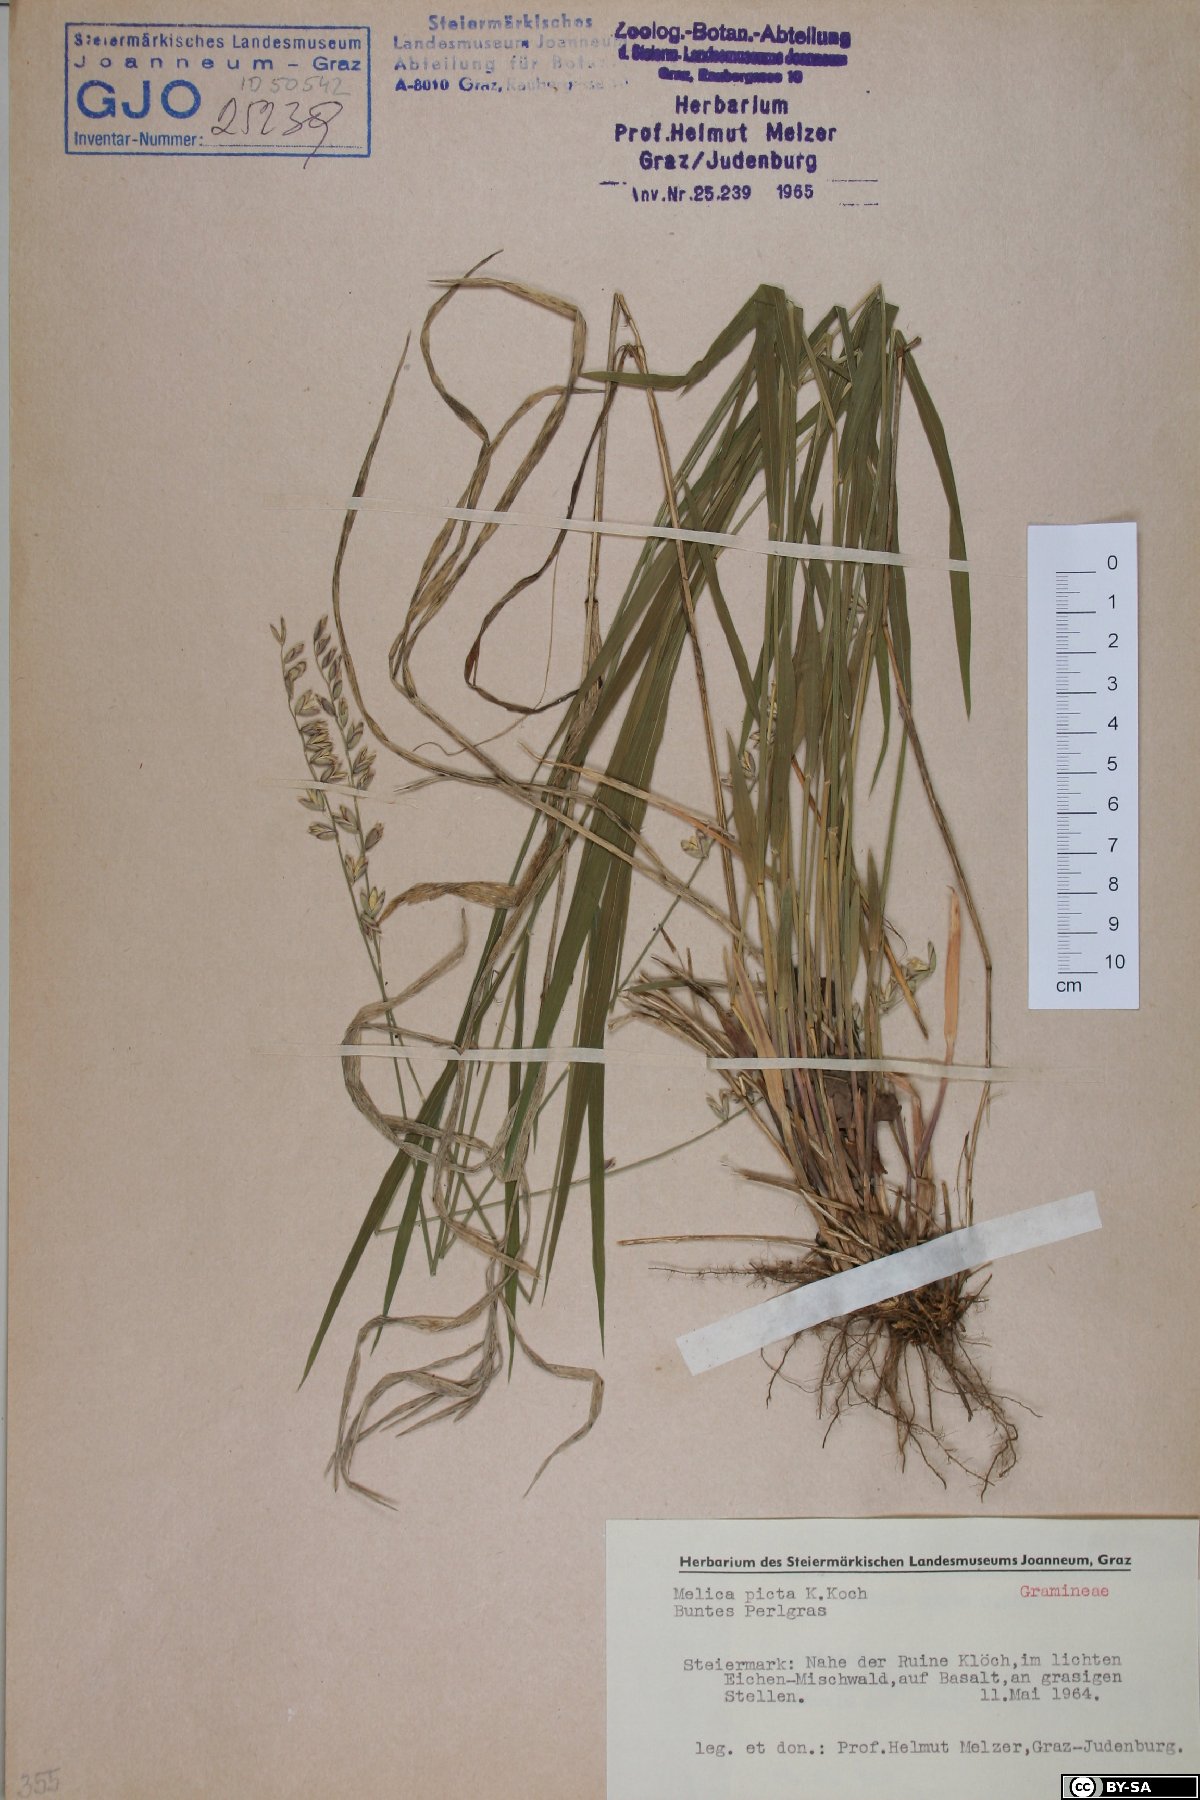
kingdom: Plantae
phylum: Tracheophyta
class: Liliopsida
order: Poales
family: Poaceae
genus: Melica
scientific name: Melica picta
